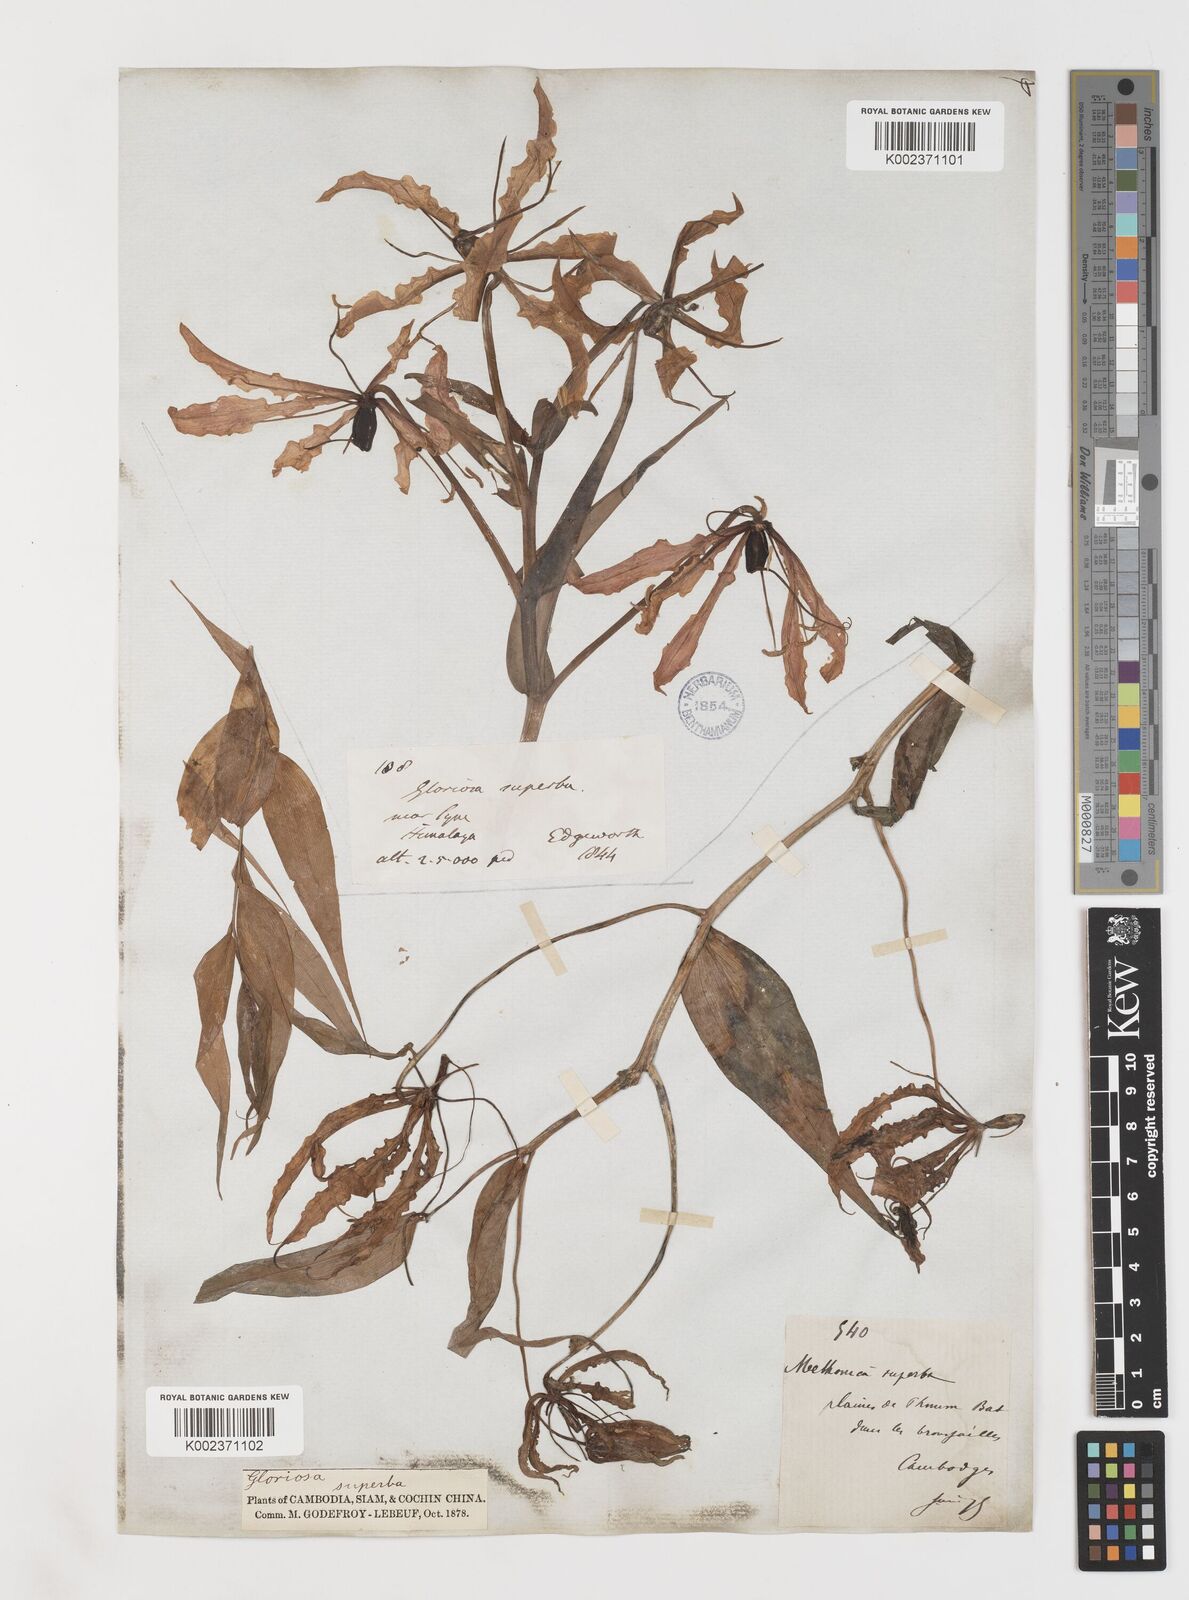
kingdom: Plantae
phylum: Tracheophyta
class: Liliopsida
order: Liliales
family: Colchicaceae
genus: Gloriosa
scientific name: Gloriosa superba
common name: Flame lily
